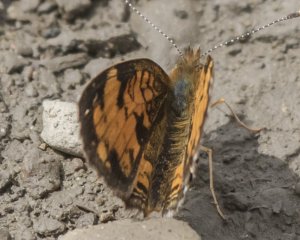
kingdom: Animalia
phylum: Arthropoda
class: Insecta
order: Lepidoptera
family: Nymphalidae
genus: Phyciodes
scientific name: Phyciodes tharos
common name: Northern Crescent
